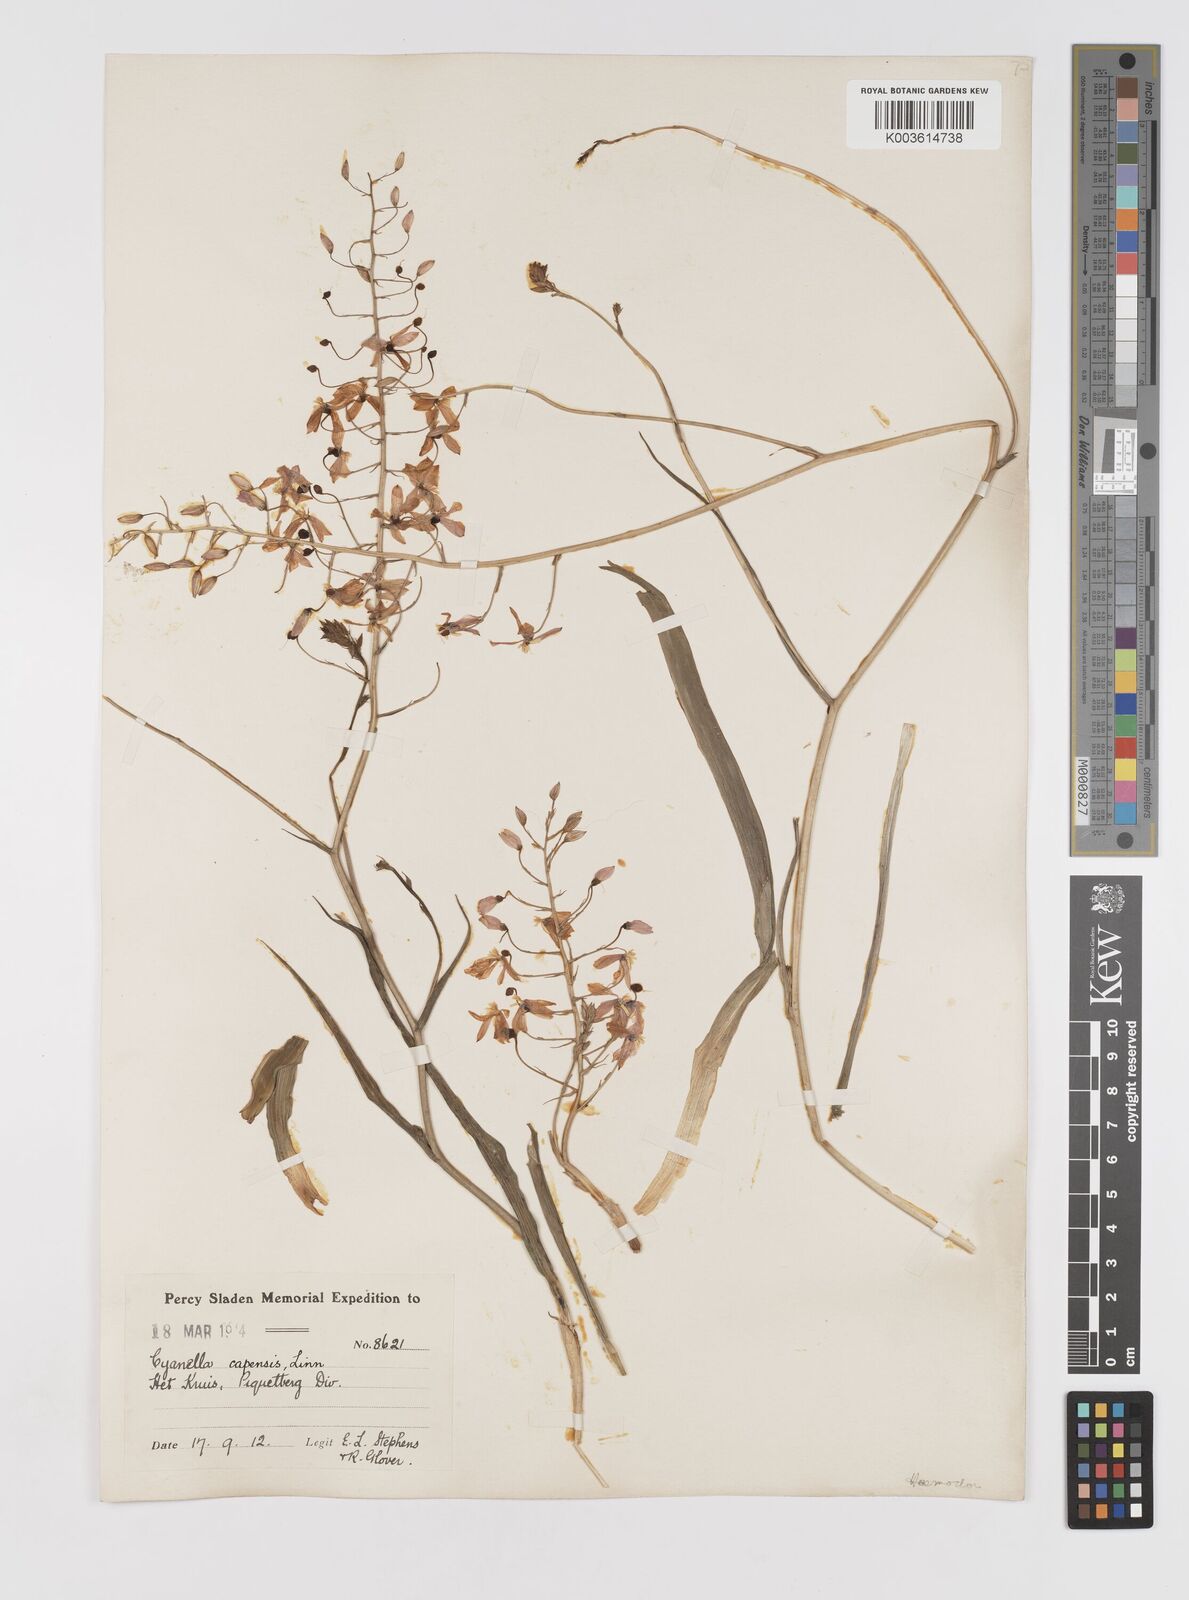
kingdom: Plantae
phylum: Tracheophyta
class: Liliopsida
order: Asparagales
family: Tecophilaeaceae
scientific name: Tecophilaeaceae
